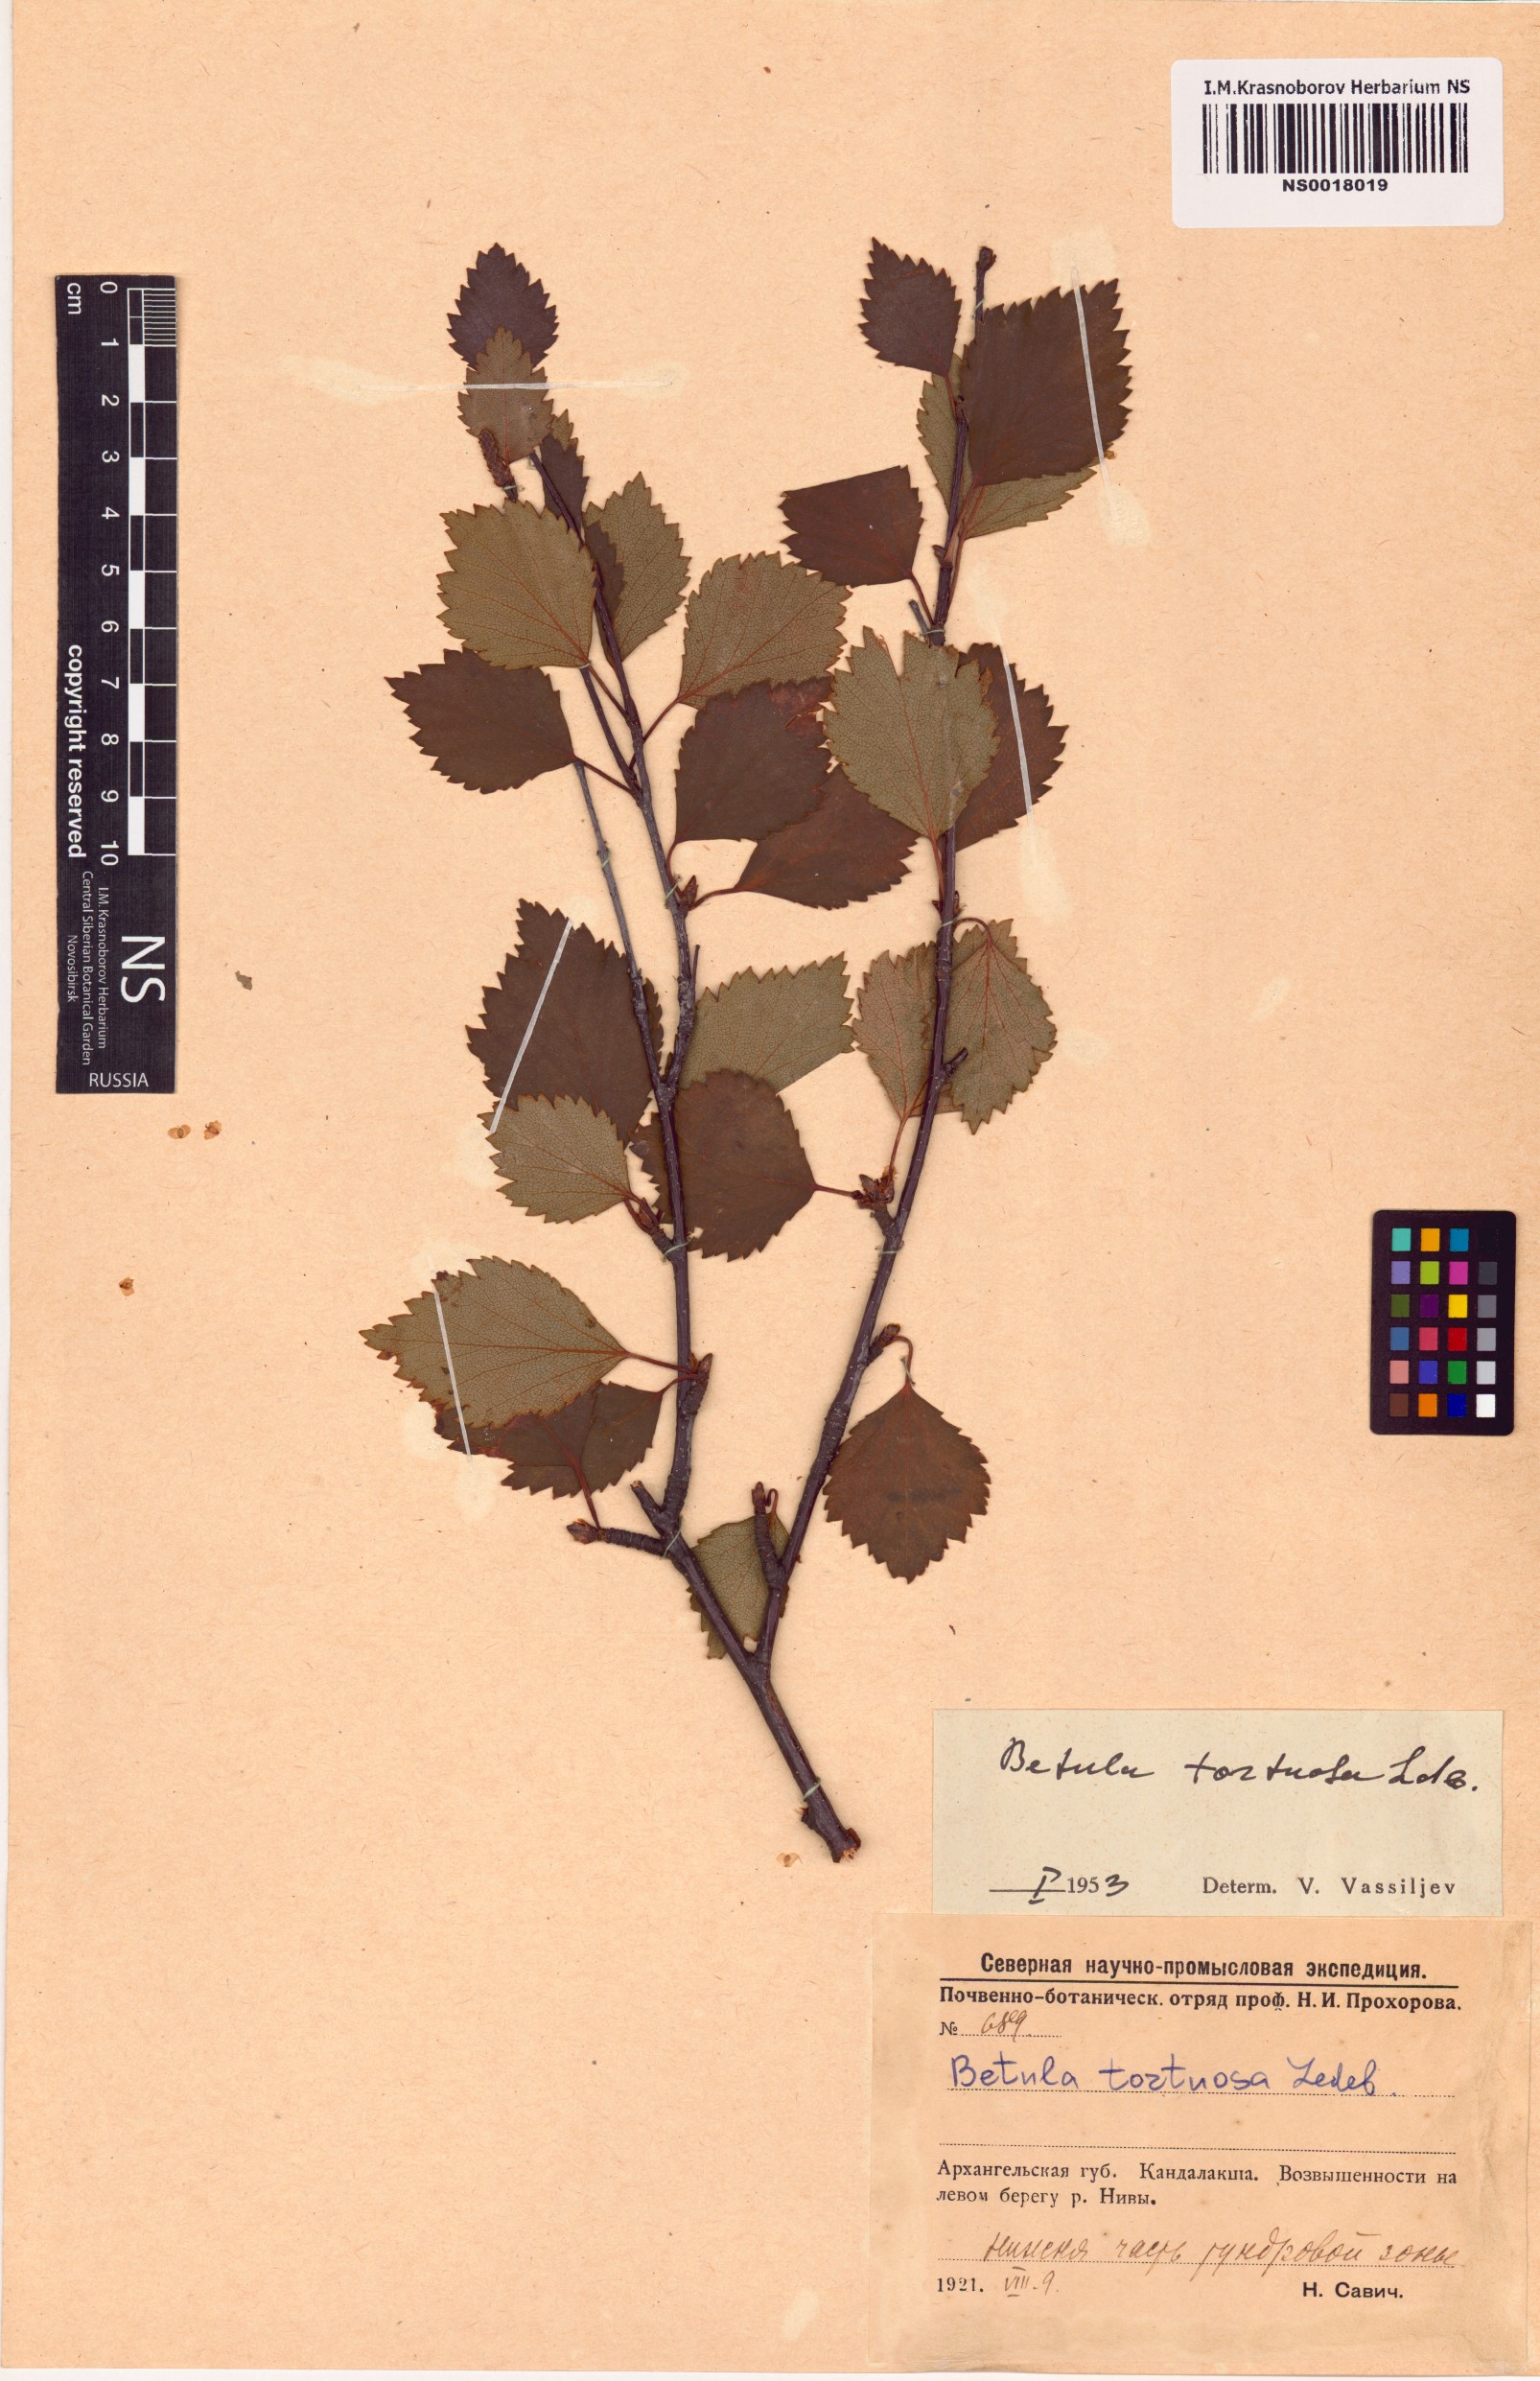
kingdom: Plantae
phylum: Tracheophyta
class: Magnoliopsida
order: Fagales
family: Betulaceae
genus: Betula
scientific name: Betula pubescens
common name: Downy birch
